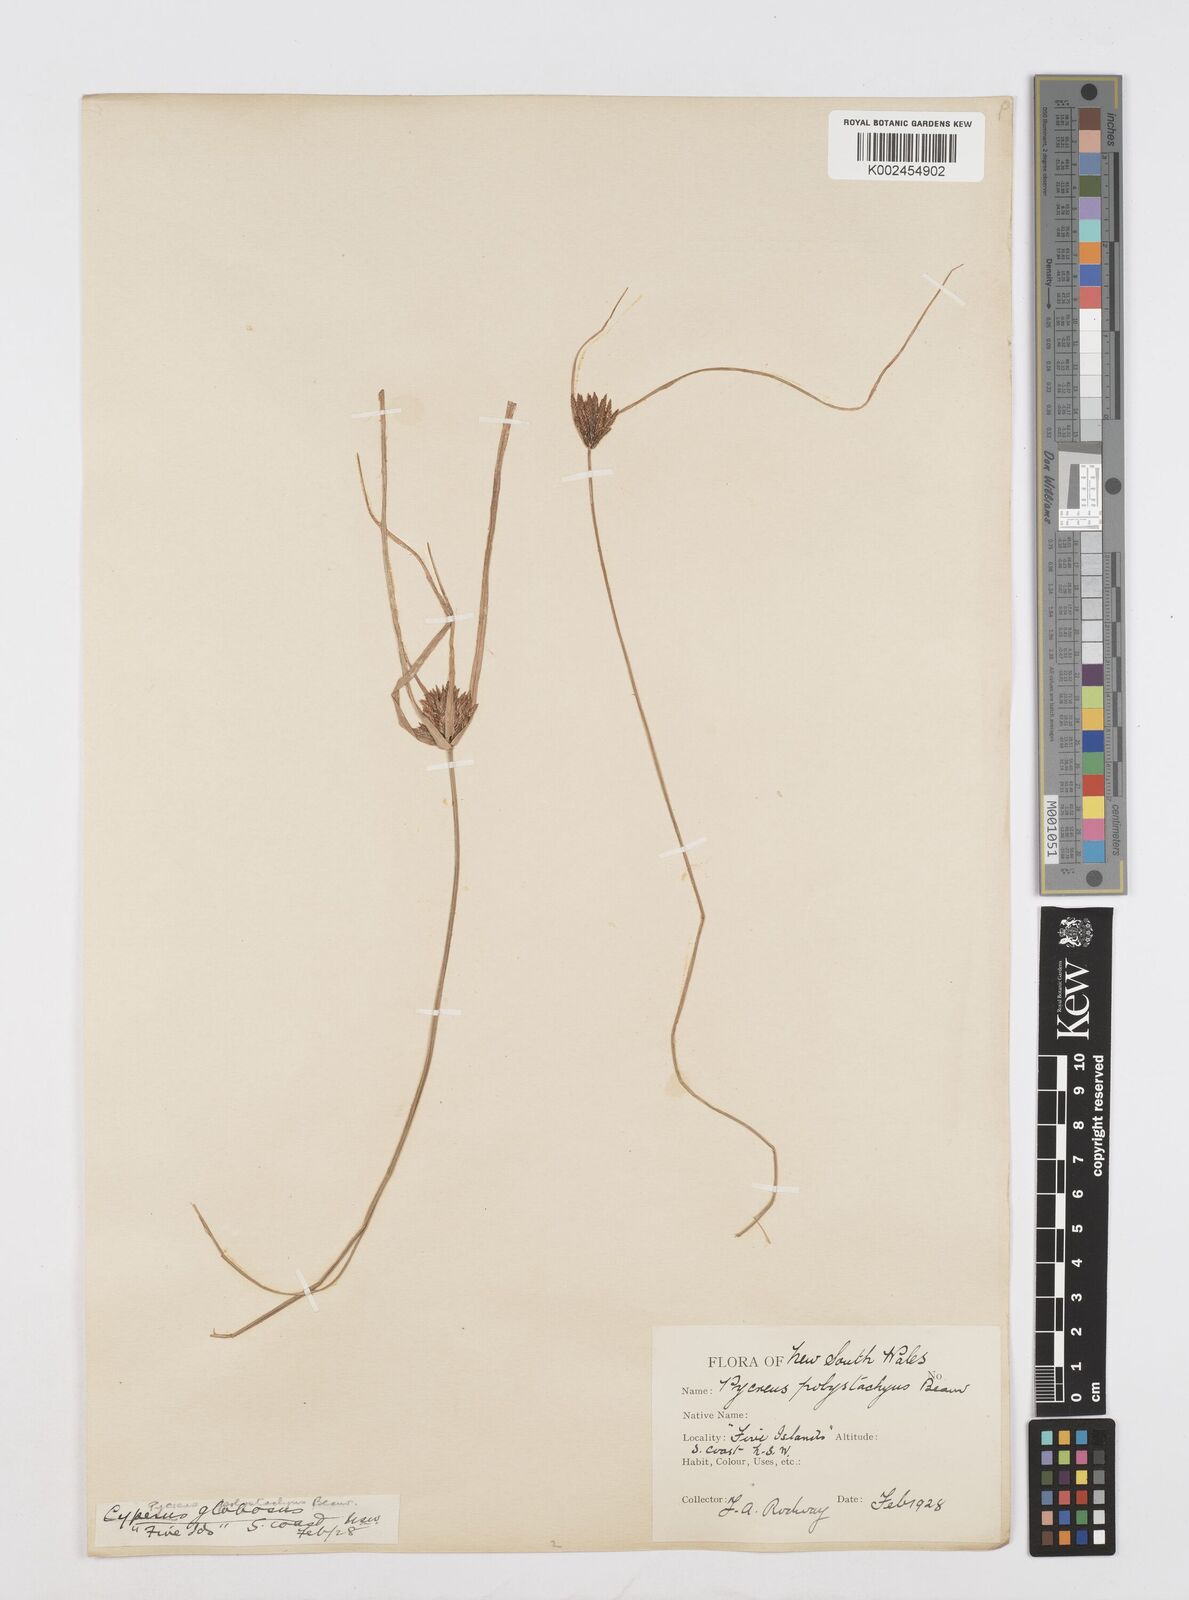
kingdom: Plantae
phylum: Tracheophyta
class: Liliopsida
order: Poales
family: Cyperaceae
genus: Cyperus
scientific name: Cyperus polystachyos
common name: Bunchy flat sedge
